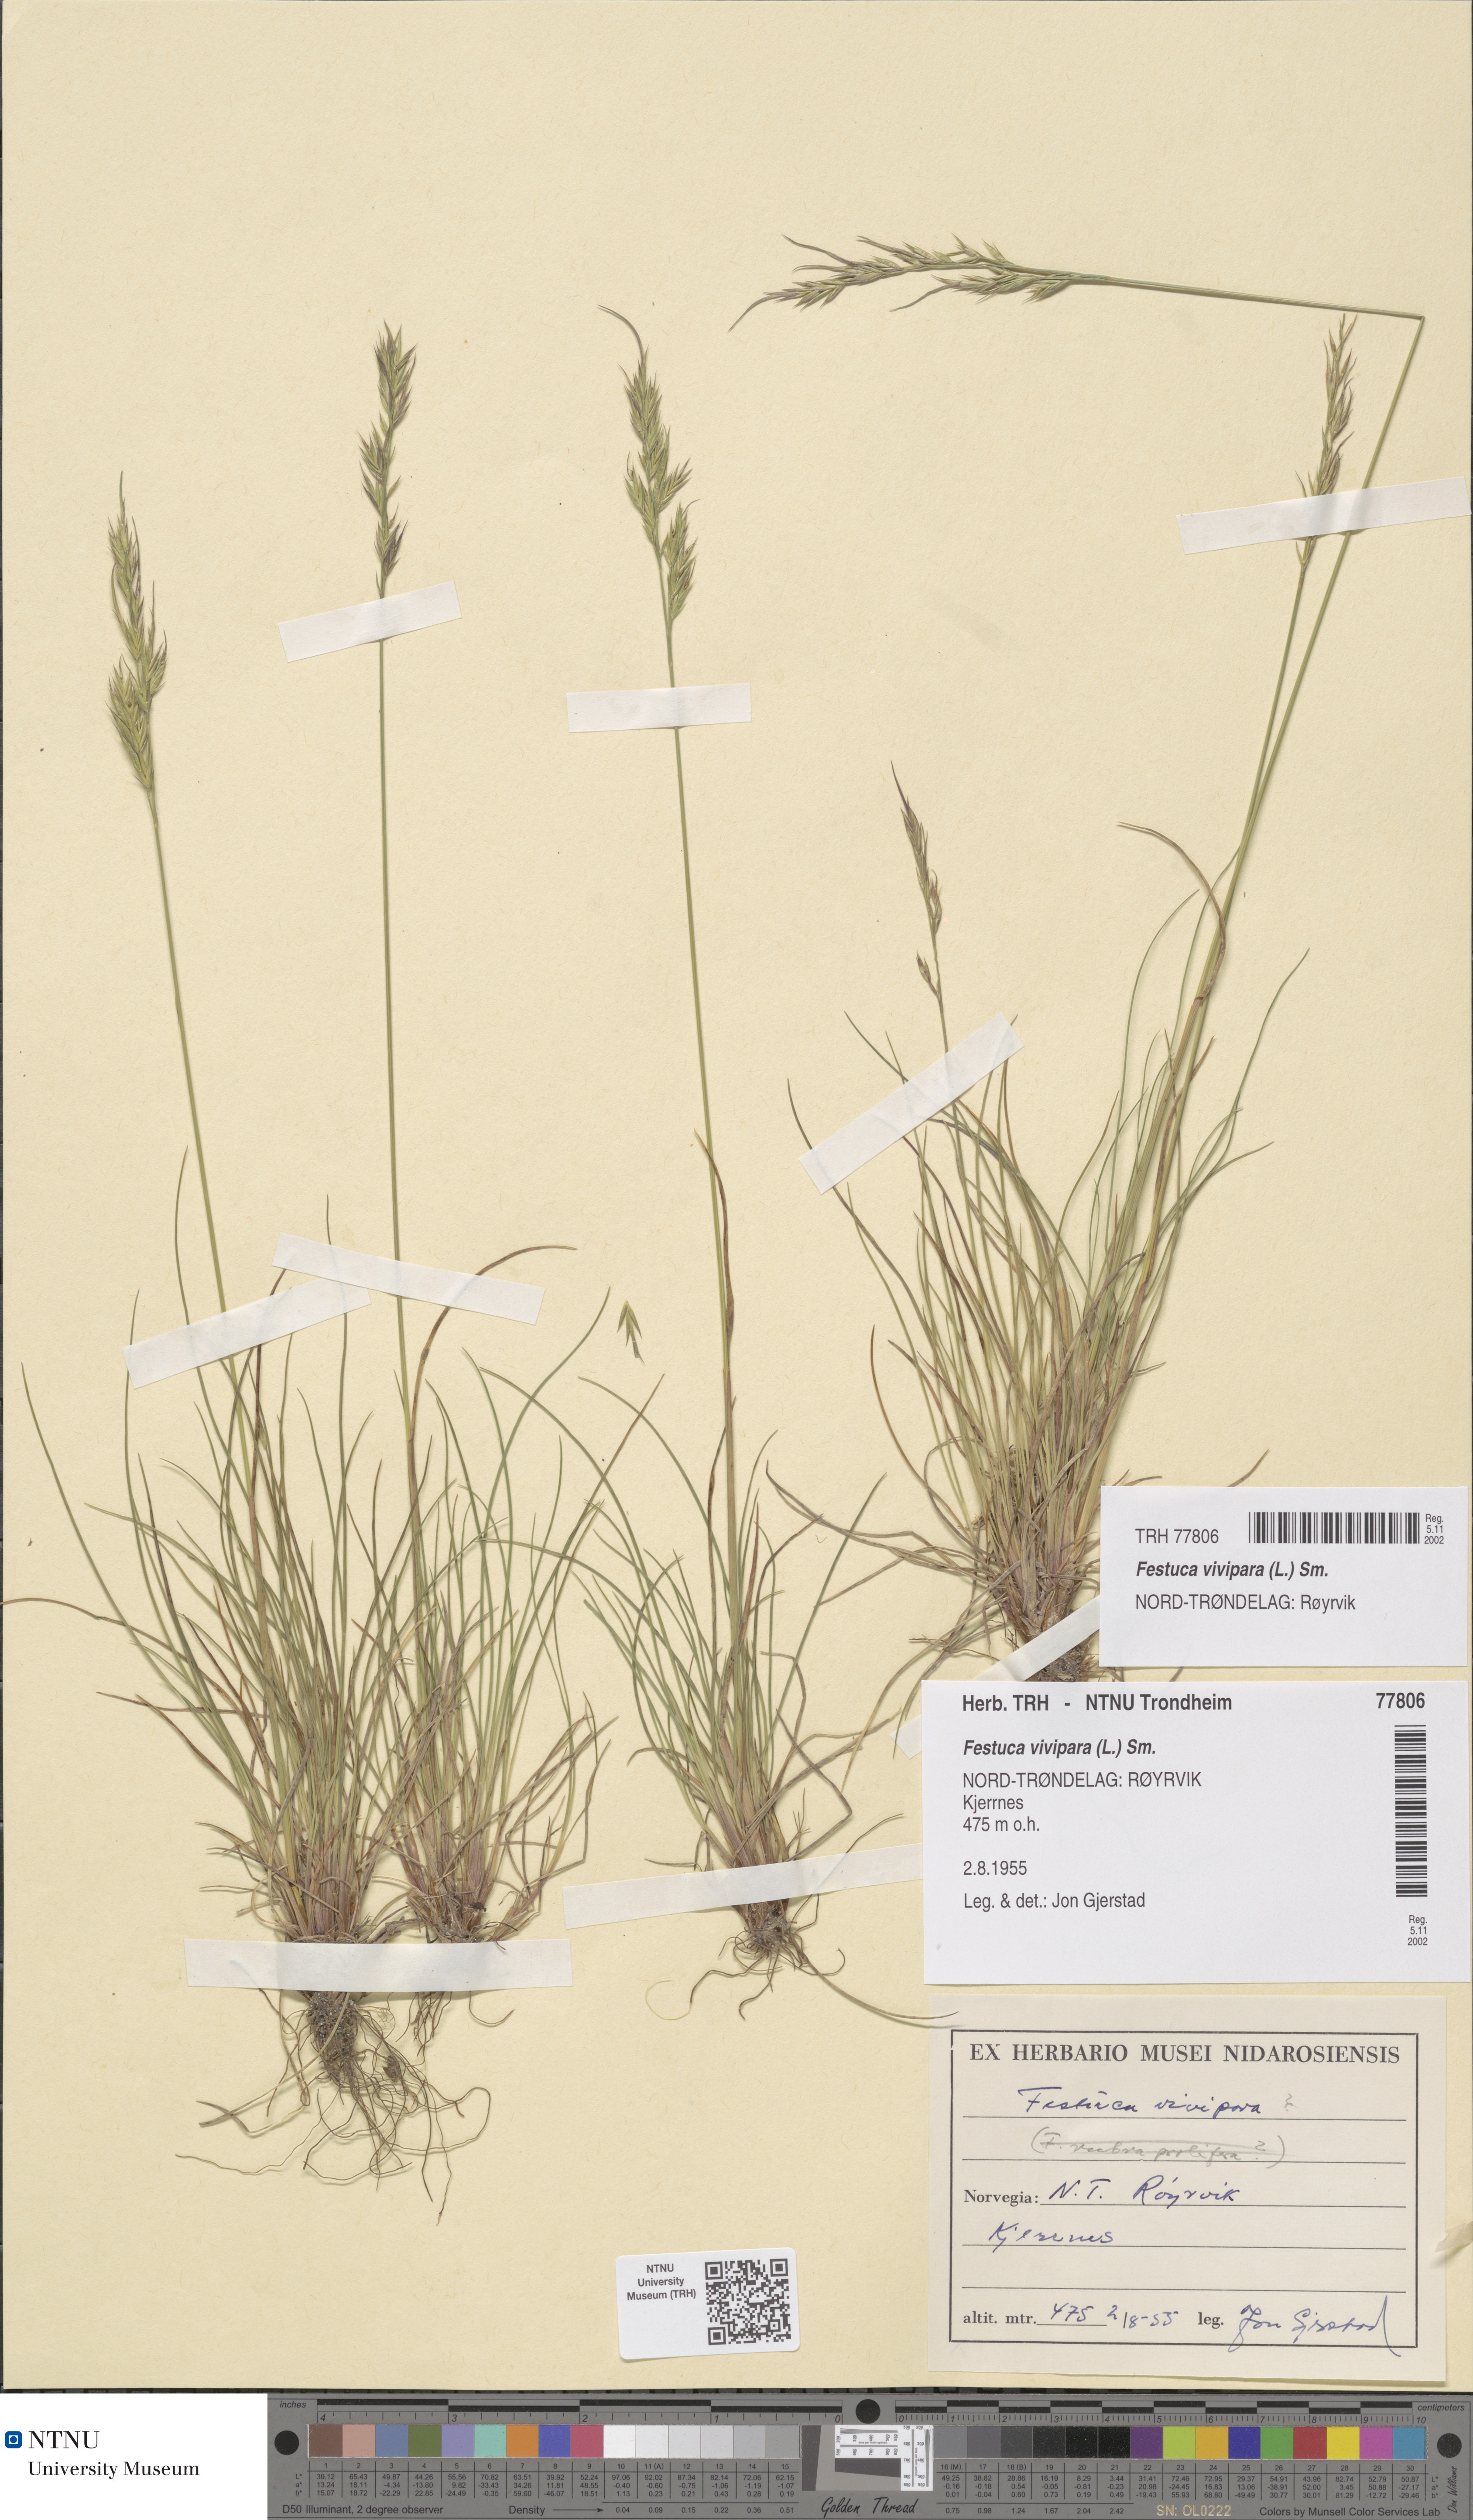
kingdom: Plantae
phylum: Tracheophyta
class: Liliopsida
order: Poales
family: Poaceae
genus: Festuca
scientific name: Festuca vivipara
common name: Viviparous sheep's-fescue
